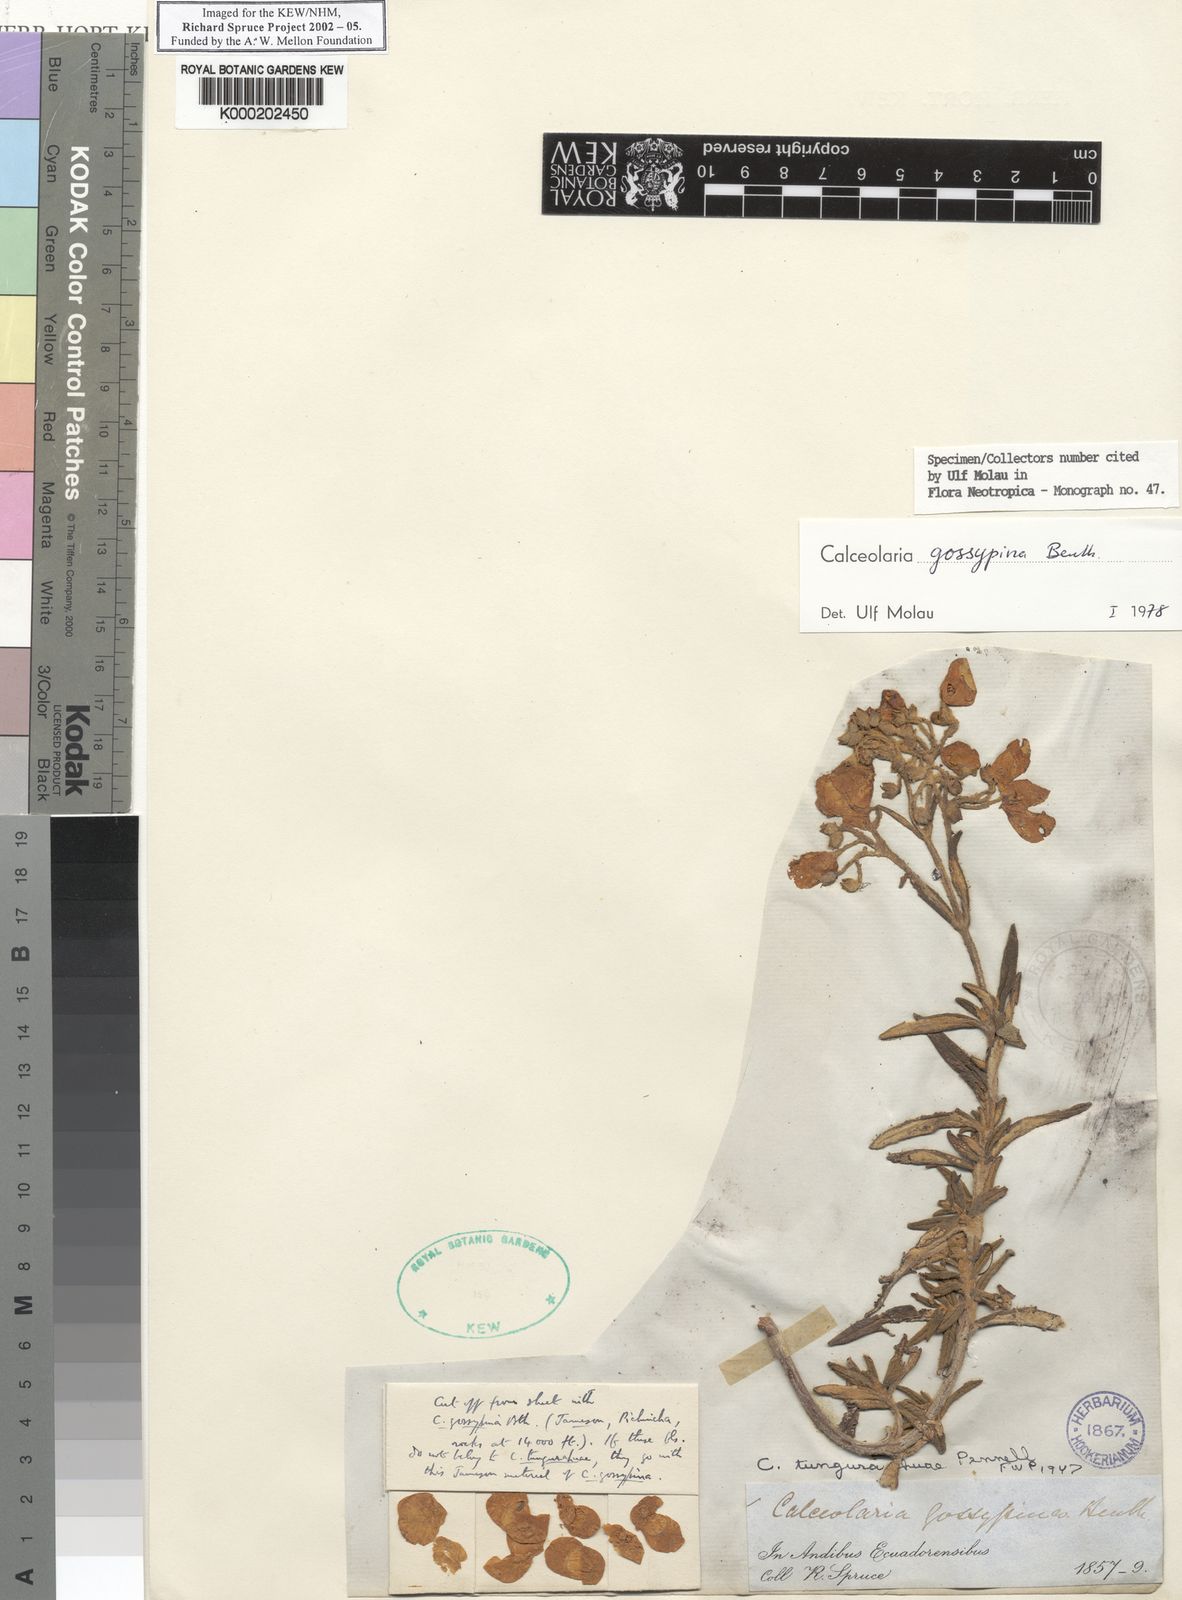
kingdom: Plantae
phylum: Tracheophyta
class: Magnoliopsida
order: Lamiales
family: Calceolariaceae
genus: Calceolaria
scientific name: Calceolaria gossypina
